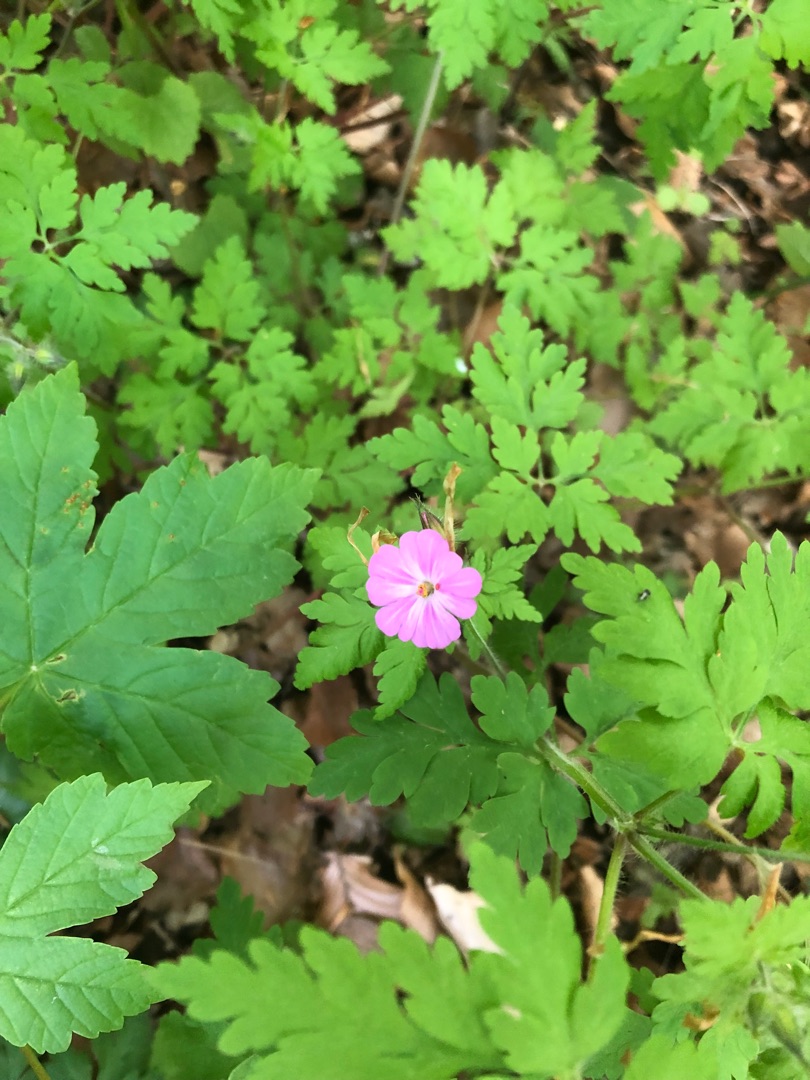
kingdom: Plantae
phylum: Tracheophyta
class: Magnoliopsida
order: Geraniales
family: Geraniaceae
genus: Geranium
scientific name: Geranium robertianum
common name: Stinkende storkenæb
